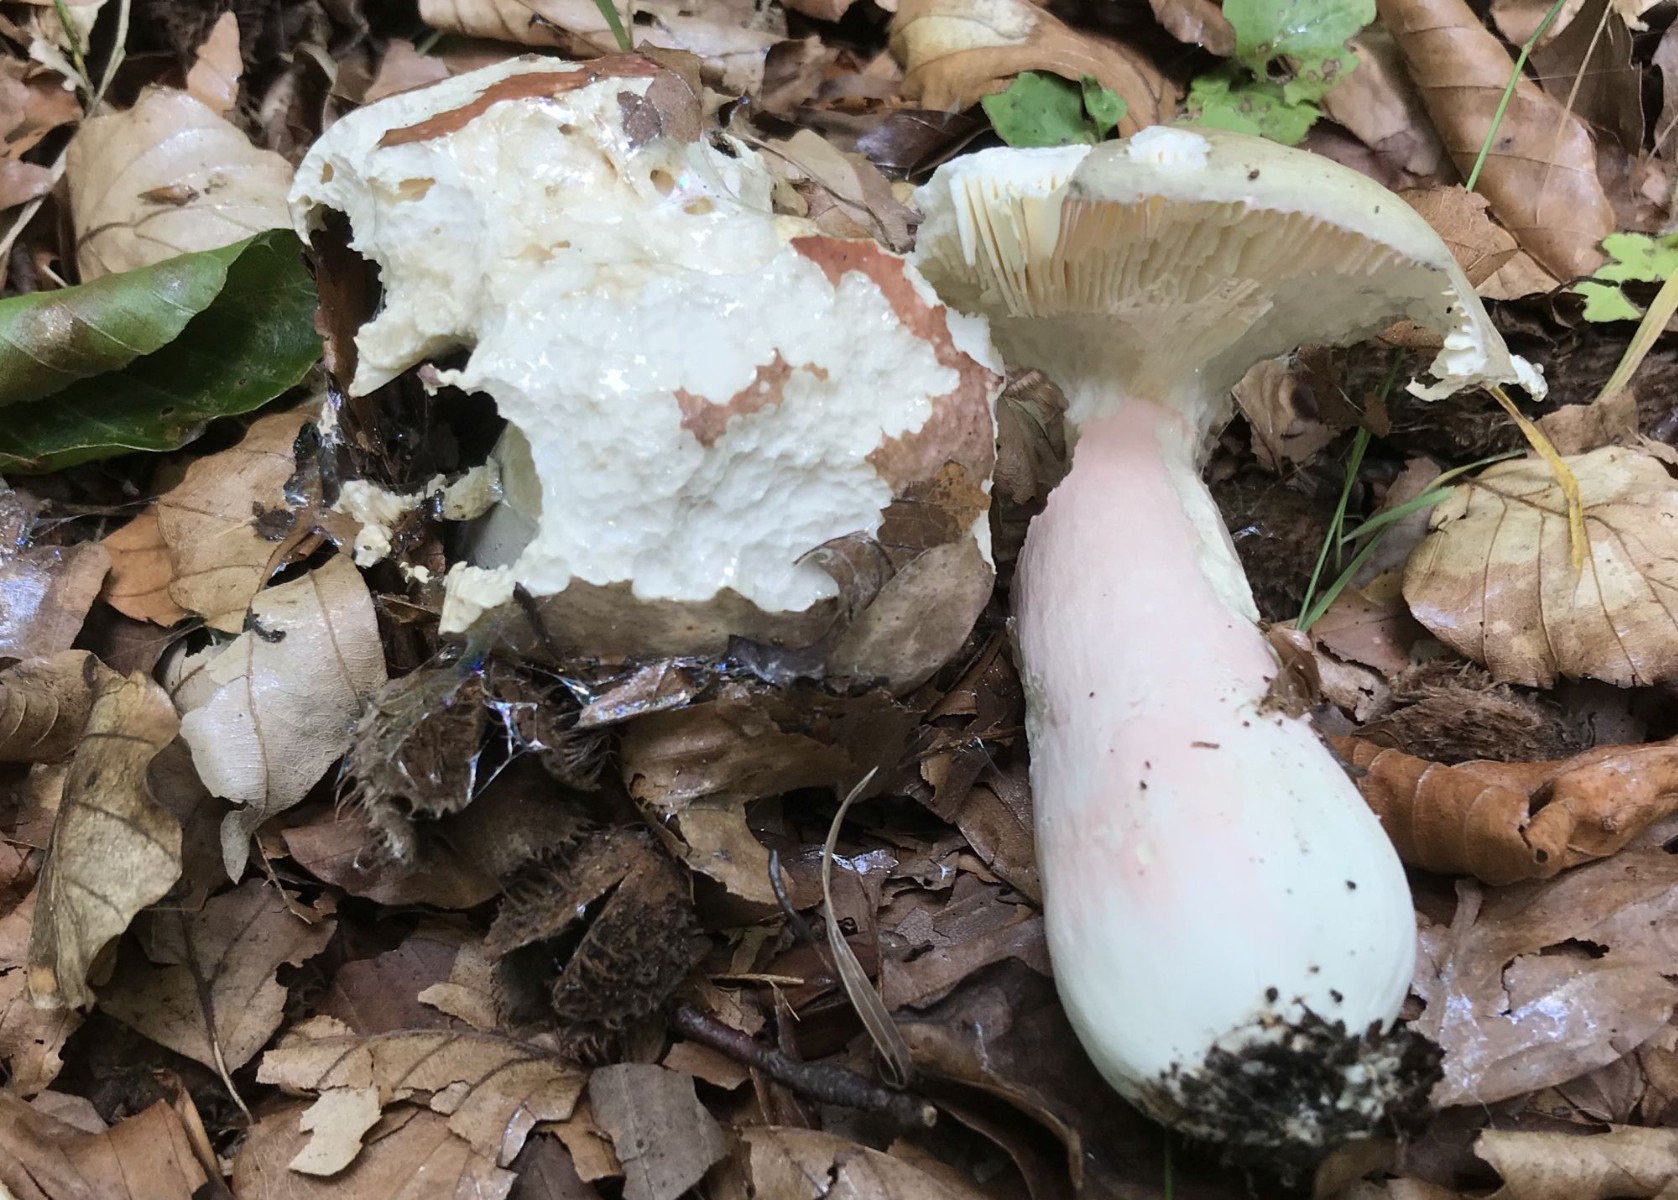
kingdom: Fungi
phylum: Basidiomycota
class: Agaricomycetes
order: Russulales
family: Russulaceae
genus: Russula
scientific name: Russula olivacea
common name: stor skørhat
